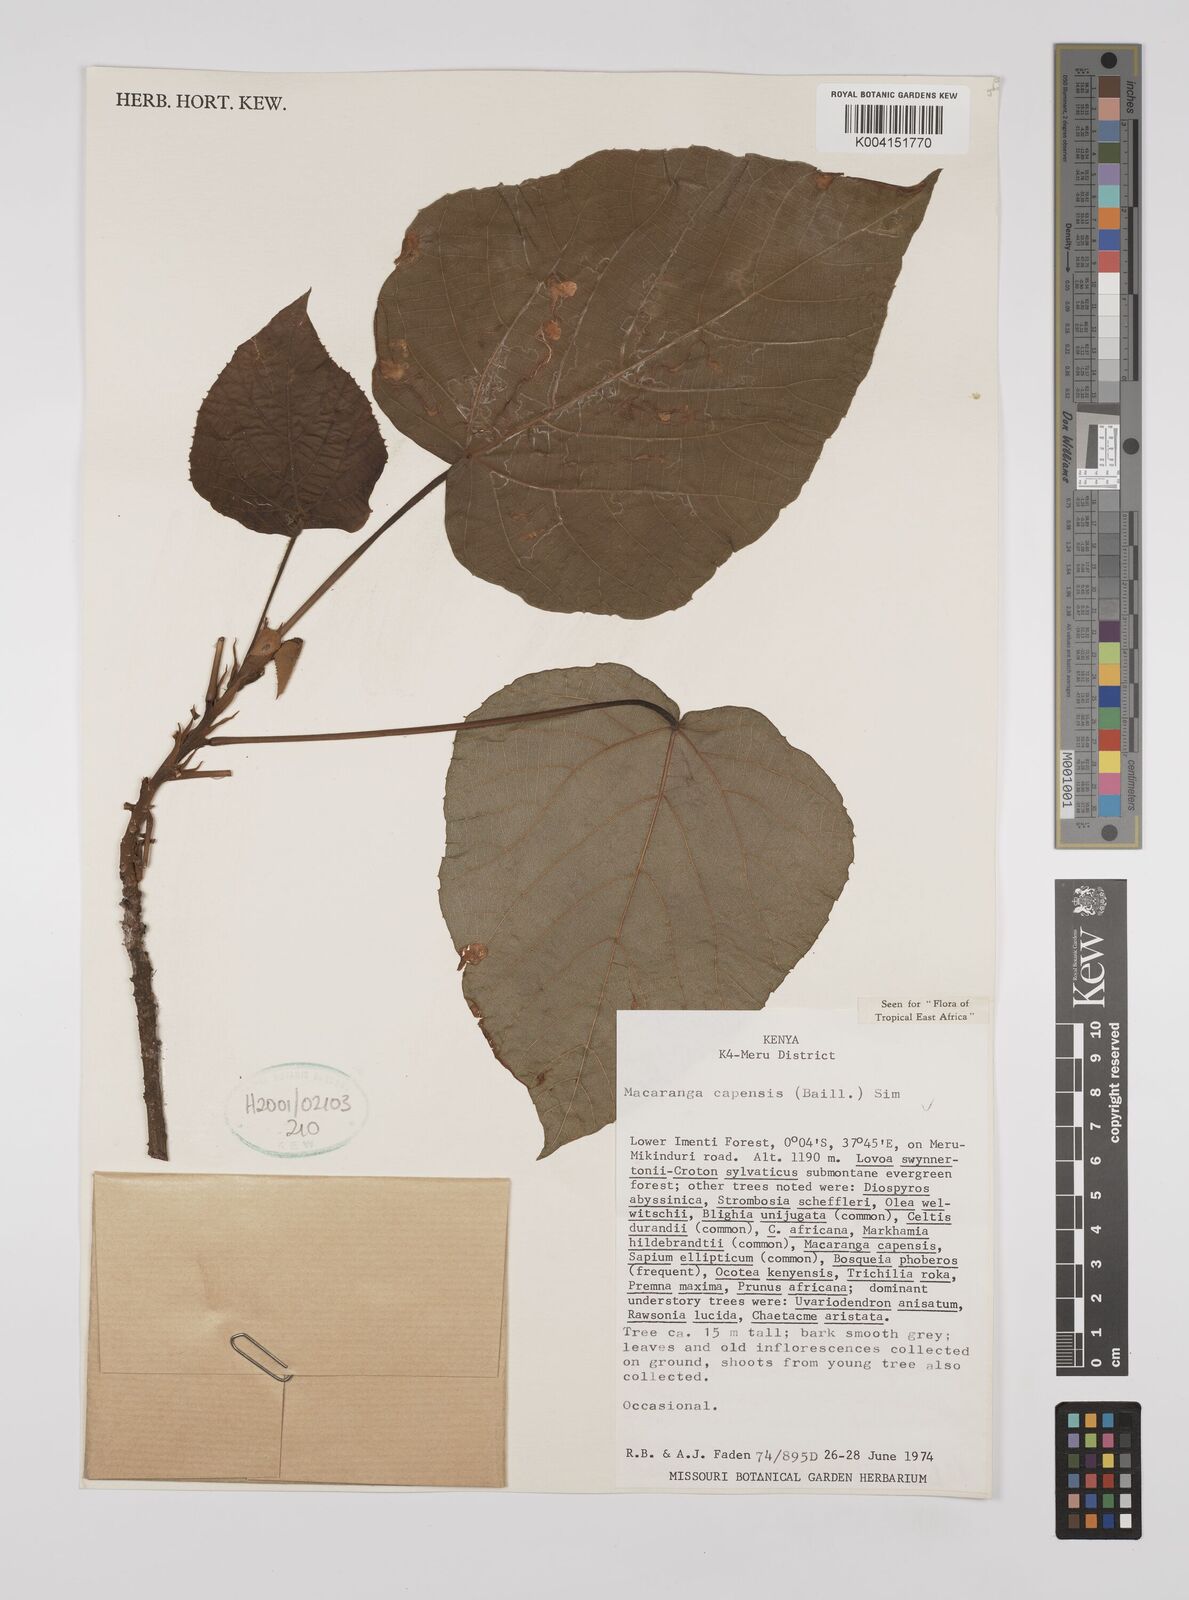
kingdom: Plantae
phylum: Tracheophyta
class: Magnoliopsida
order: Malpighiales
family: Euphorbiaceae
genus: Macaranga
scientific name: Macaranga capensis
